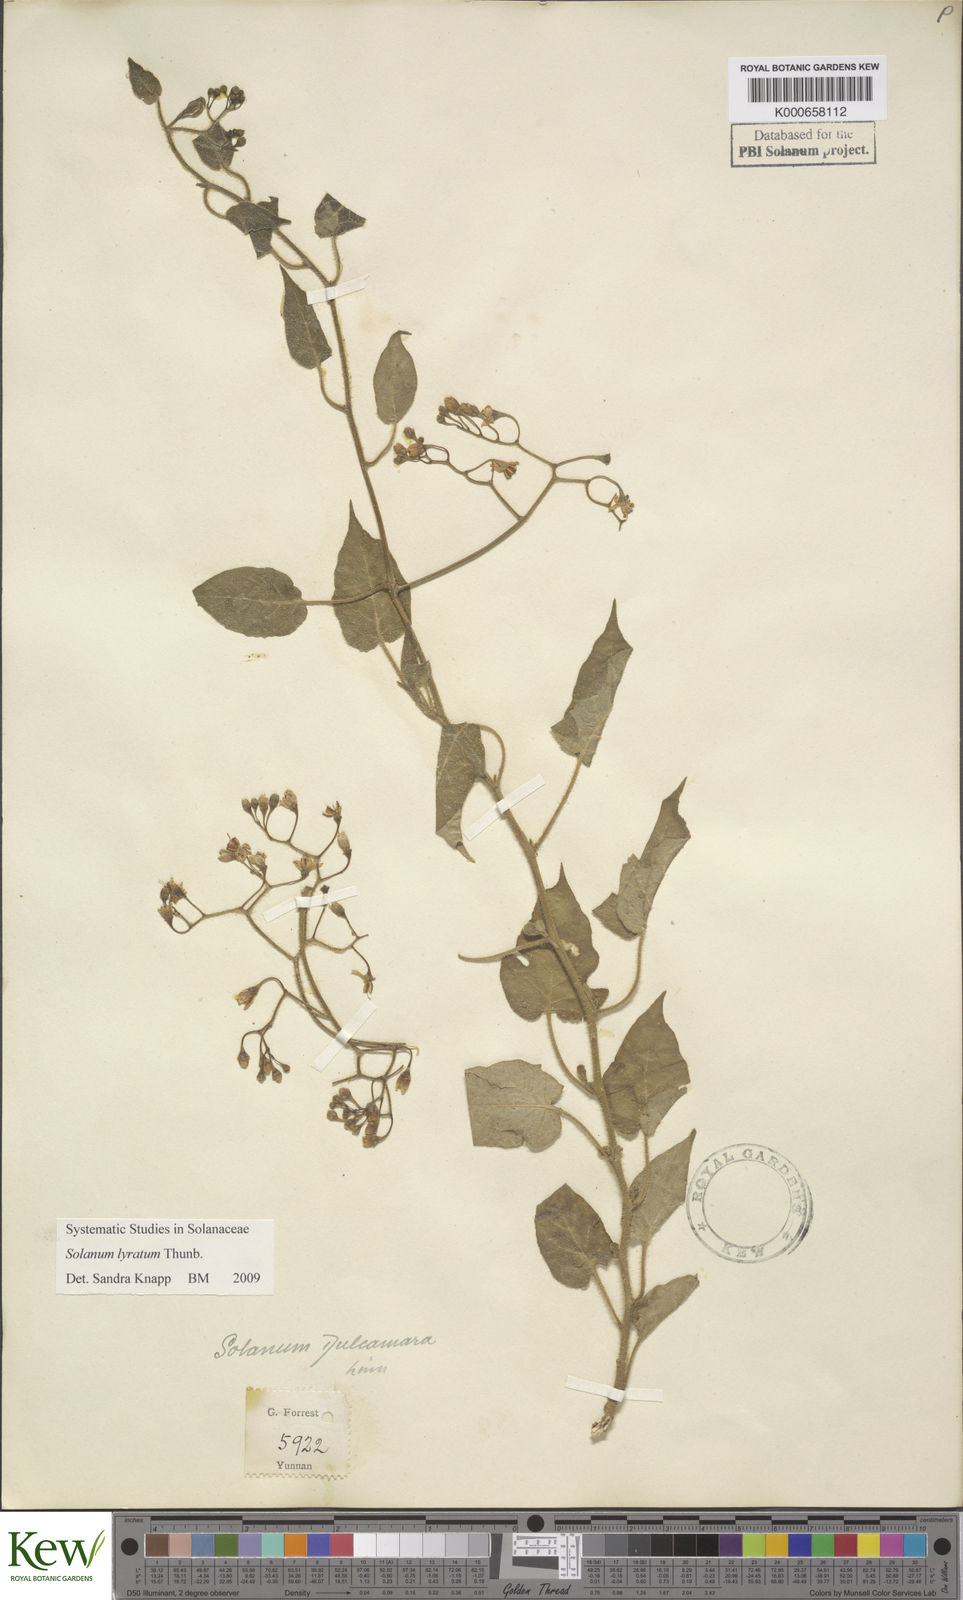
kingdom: Plantae
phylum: Tracheophyta
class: Magnoliopsida
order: Solanales
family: Solanaceae
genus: Solanum
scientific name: Solanum lyratum
